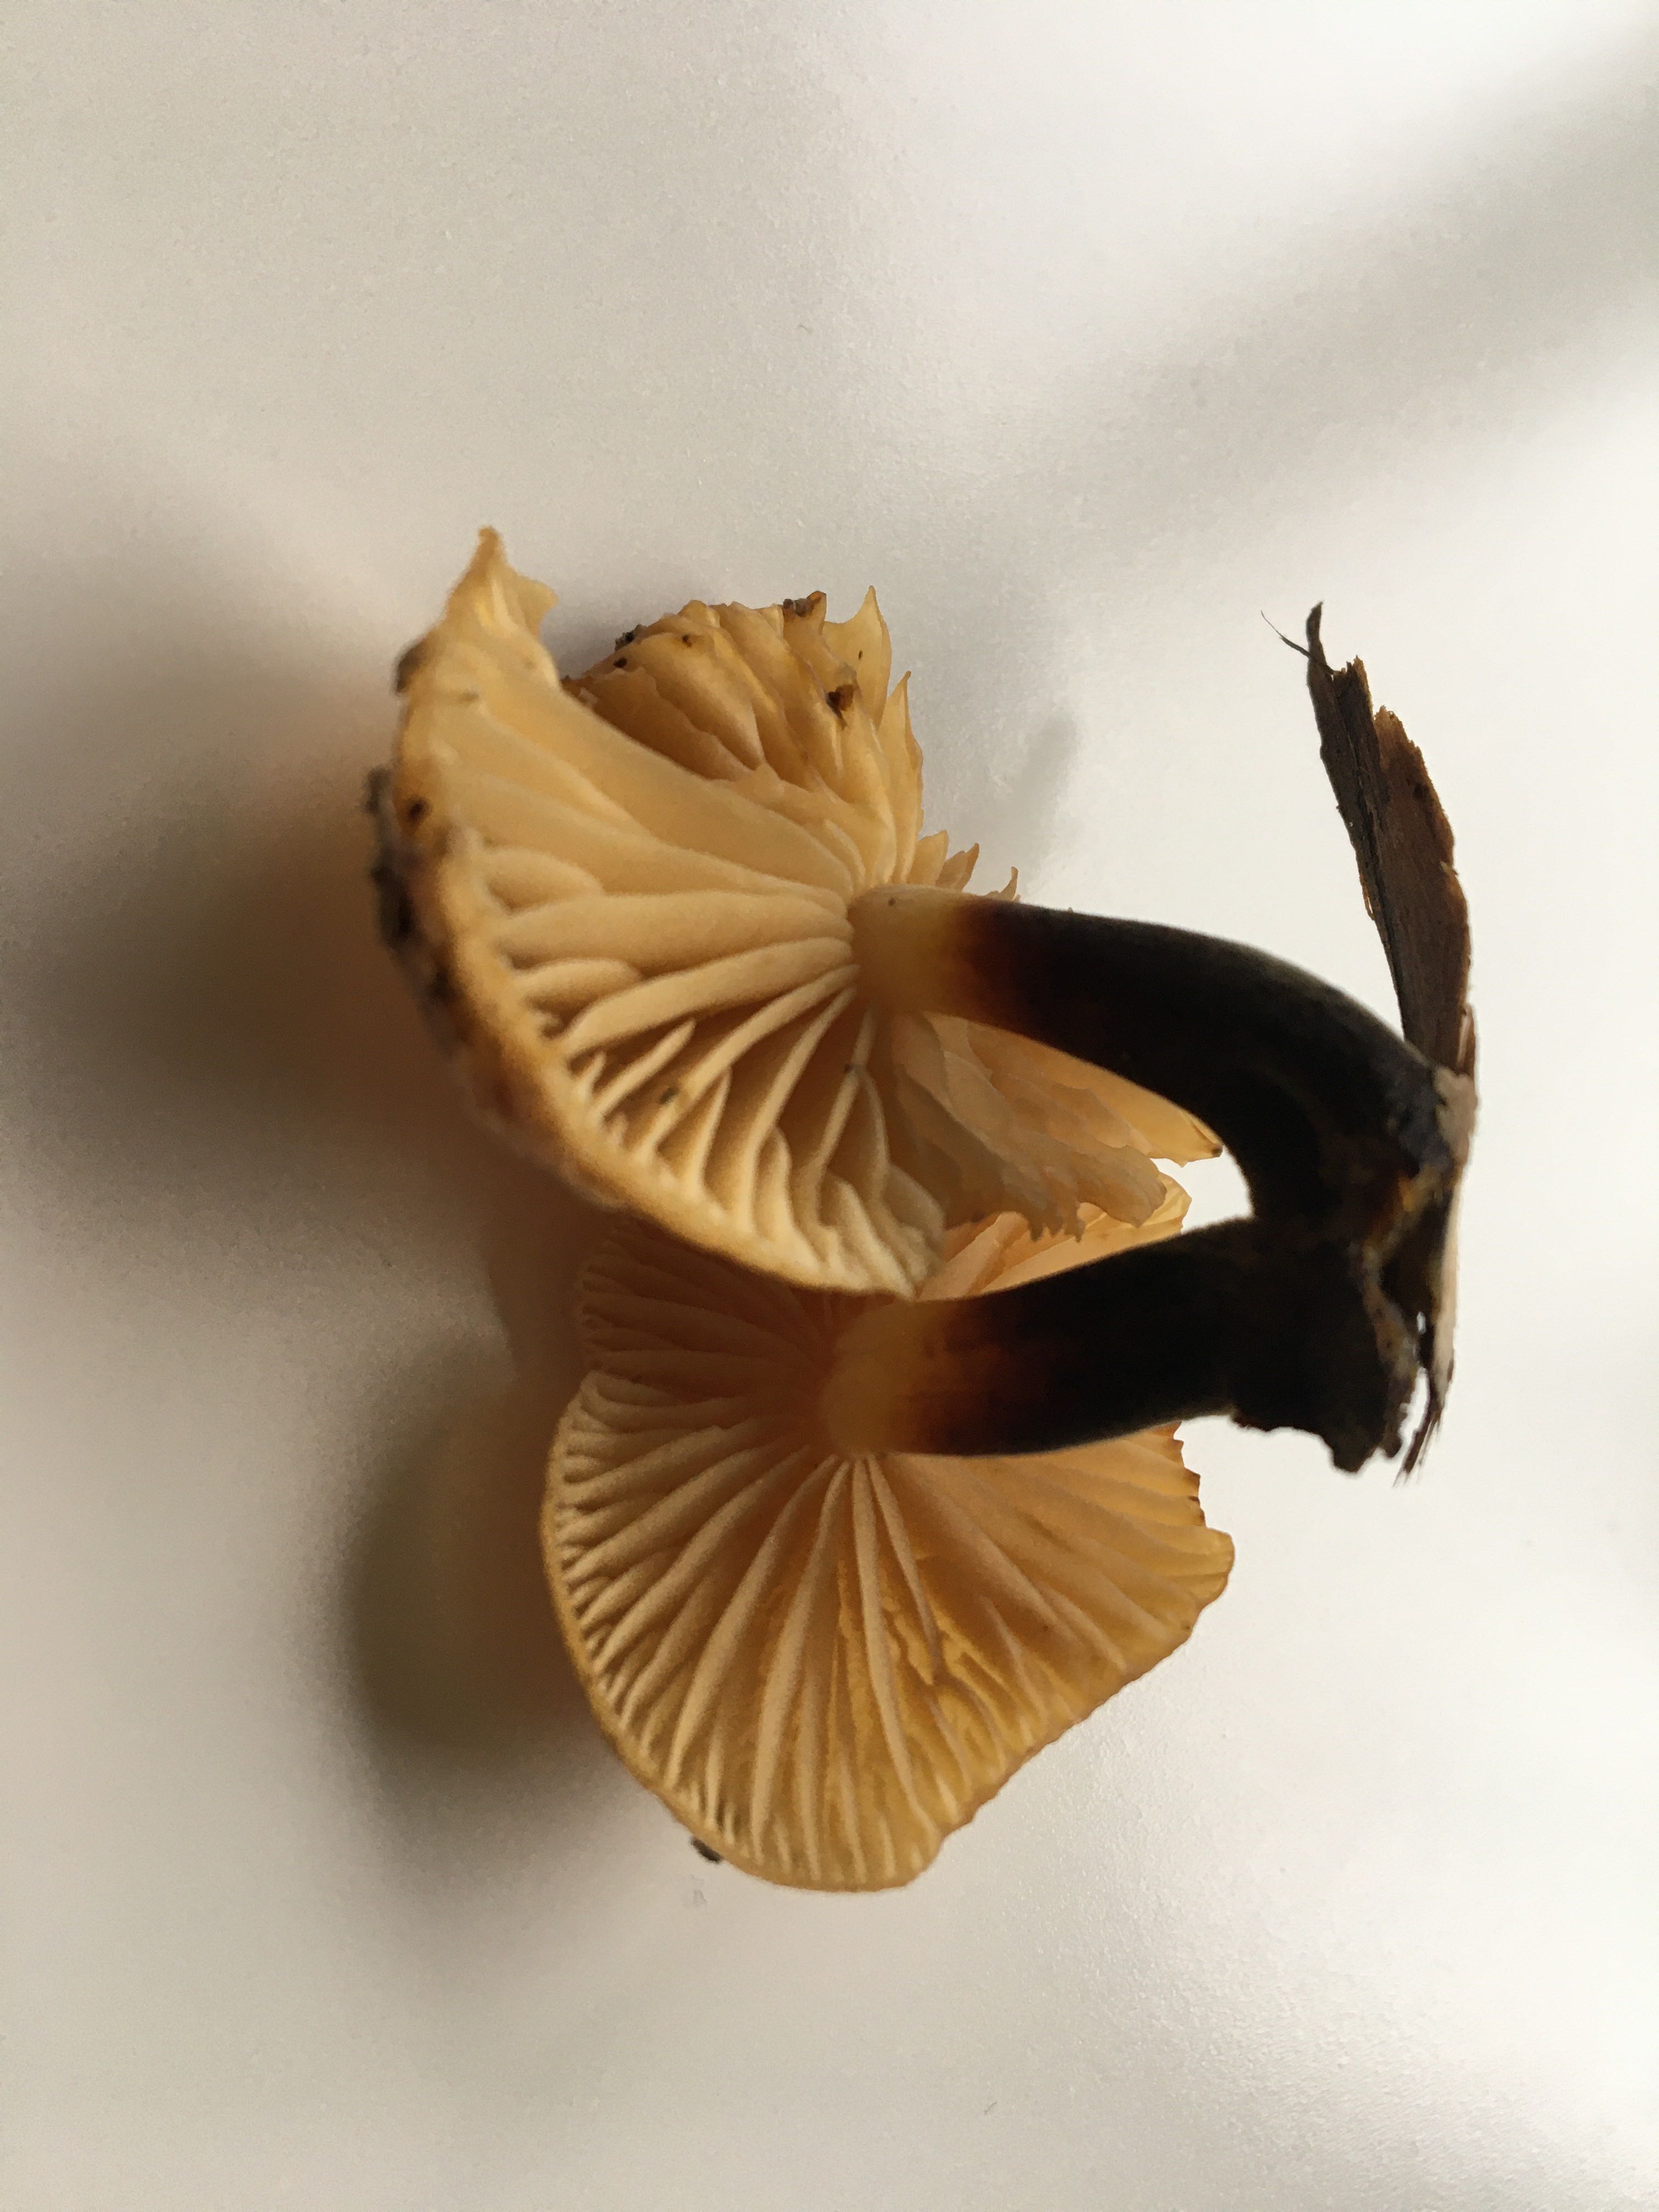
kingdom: Fungi
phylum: Basidiomycota
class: Agaricomycetes
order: Agaricales
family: Physalacriaceae
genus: Flammulina
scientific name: Flammulina elastica
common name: pile-fløjlsfod
